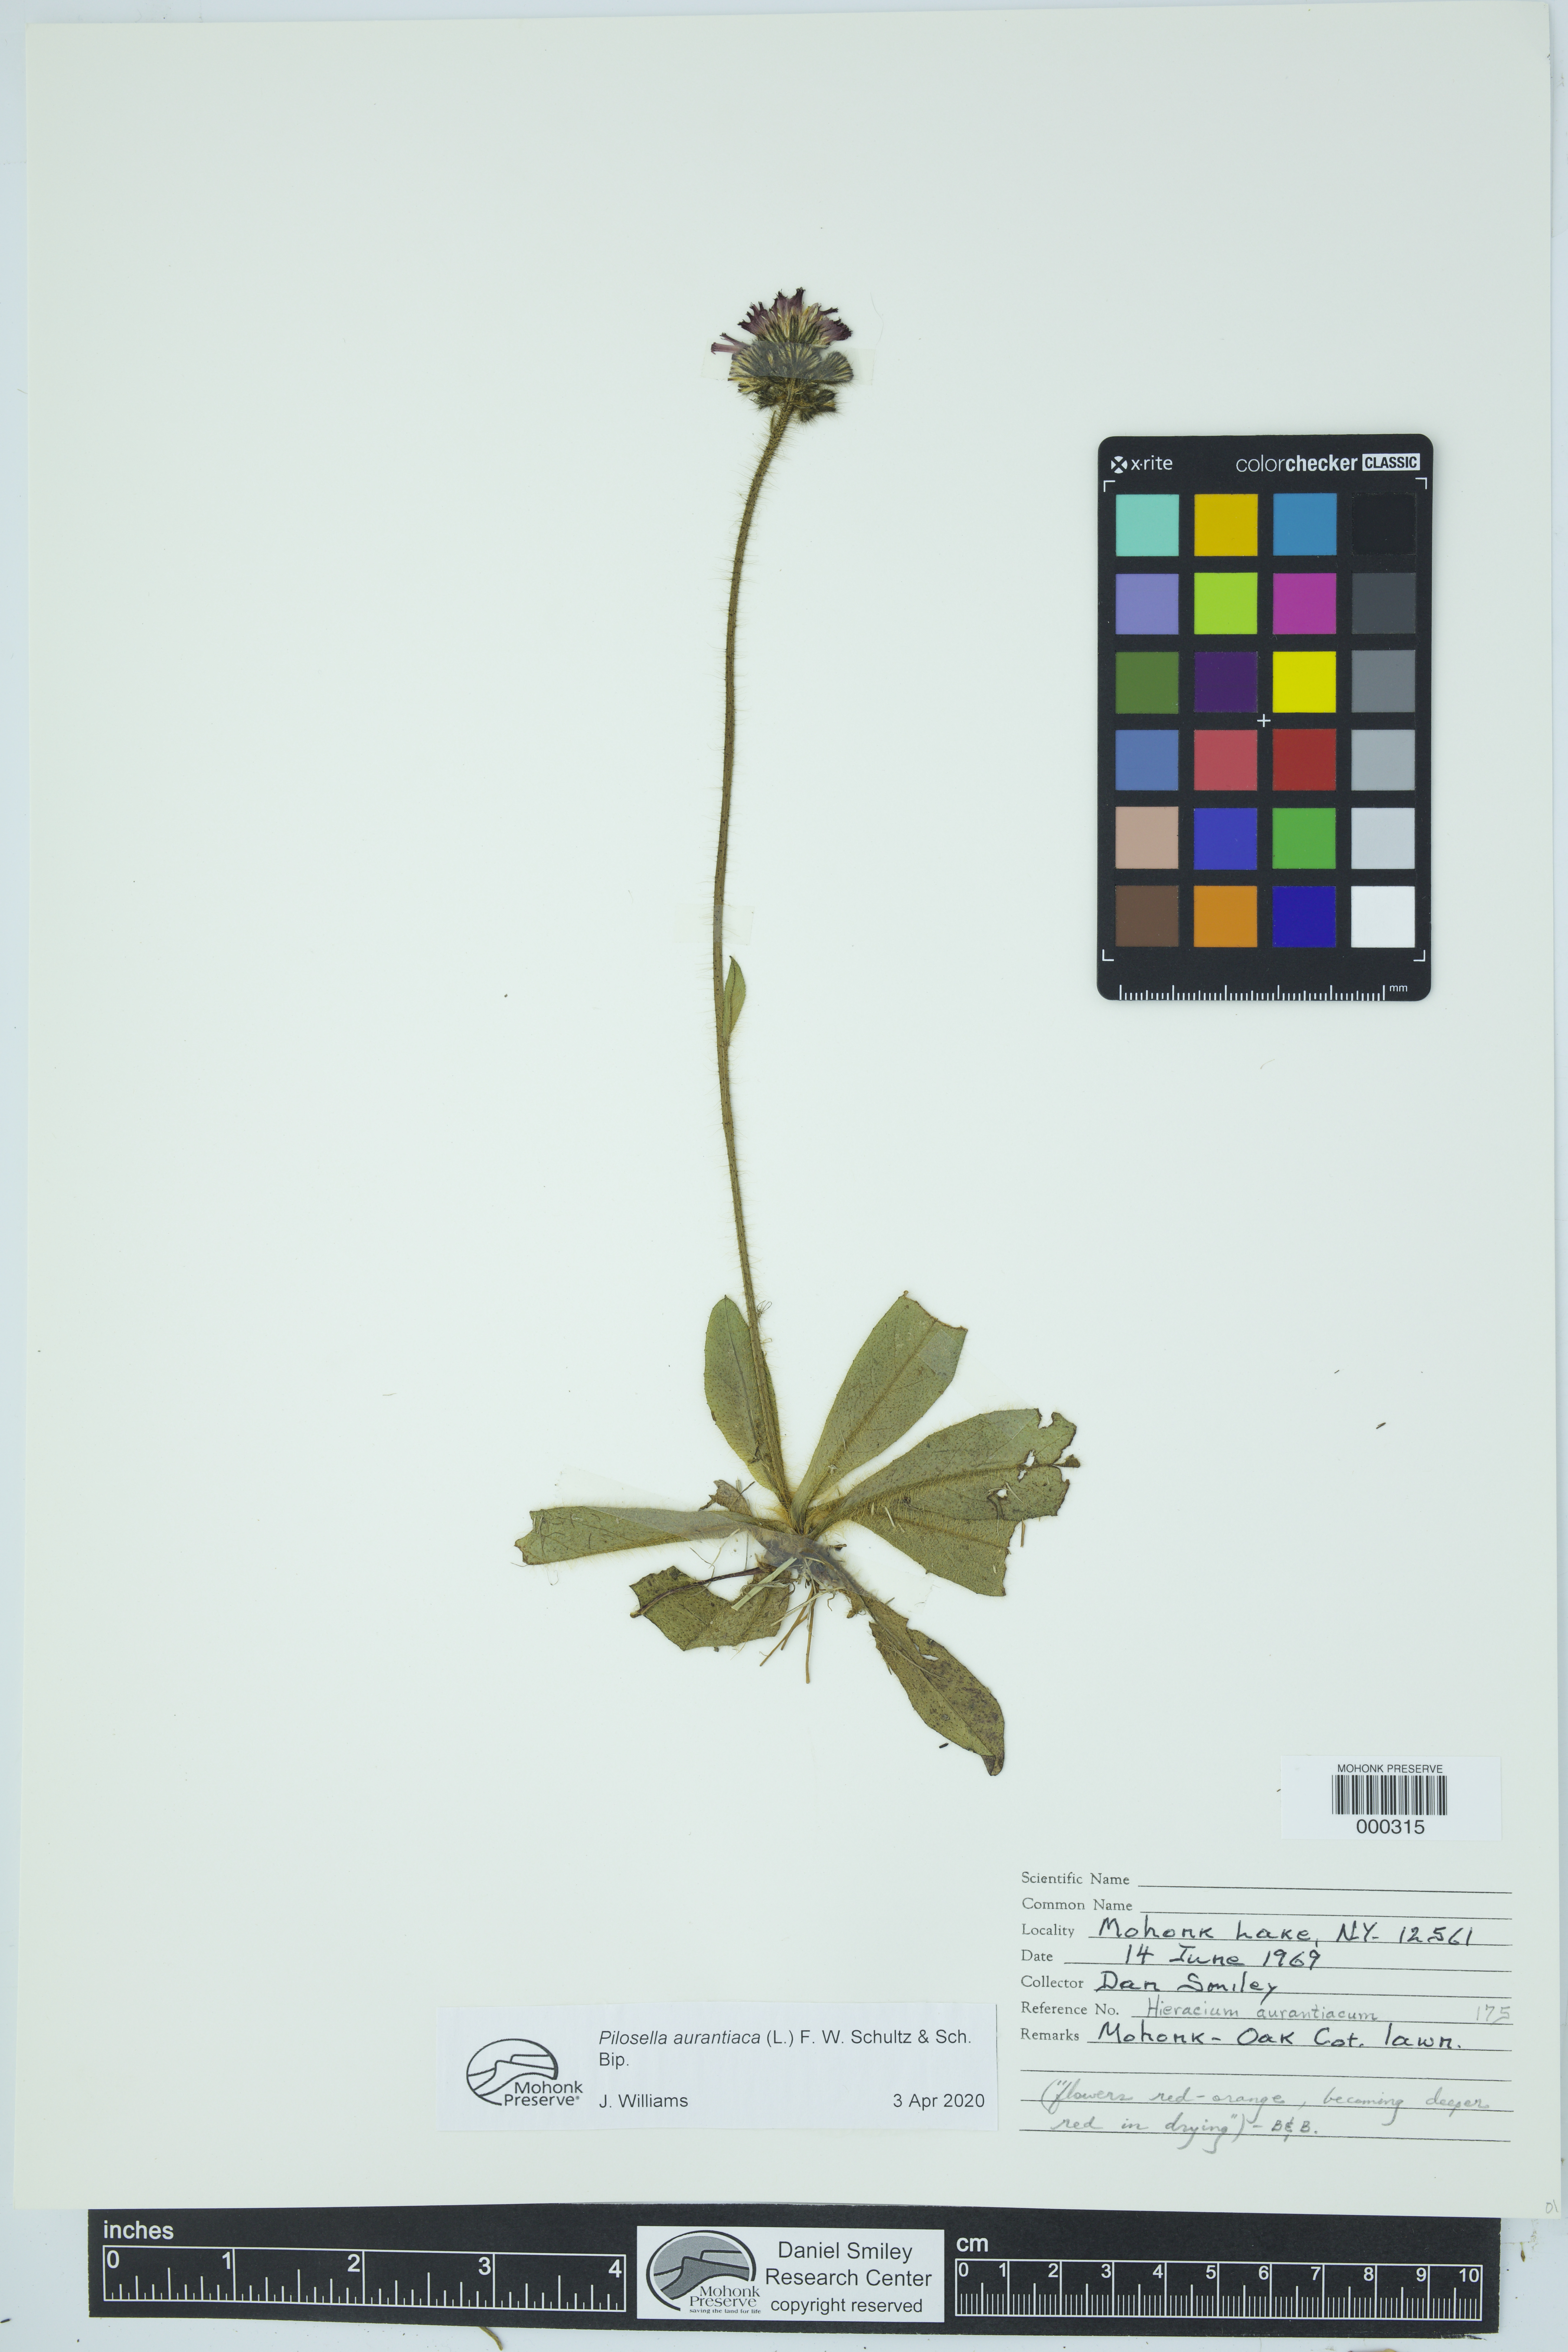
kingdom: Plantae
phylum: Tracheophyta
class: Magnoliopsida
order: Asterales
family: Asteraceae
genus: Pilosella
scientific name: Pilosella aurantiaca
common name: Fox-and-cubs
